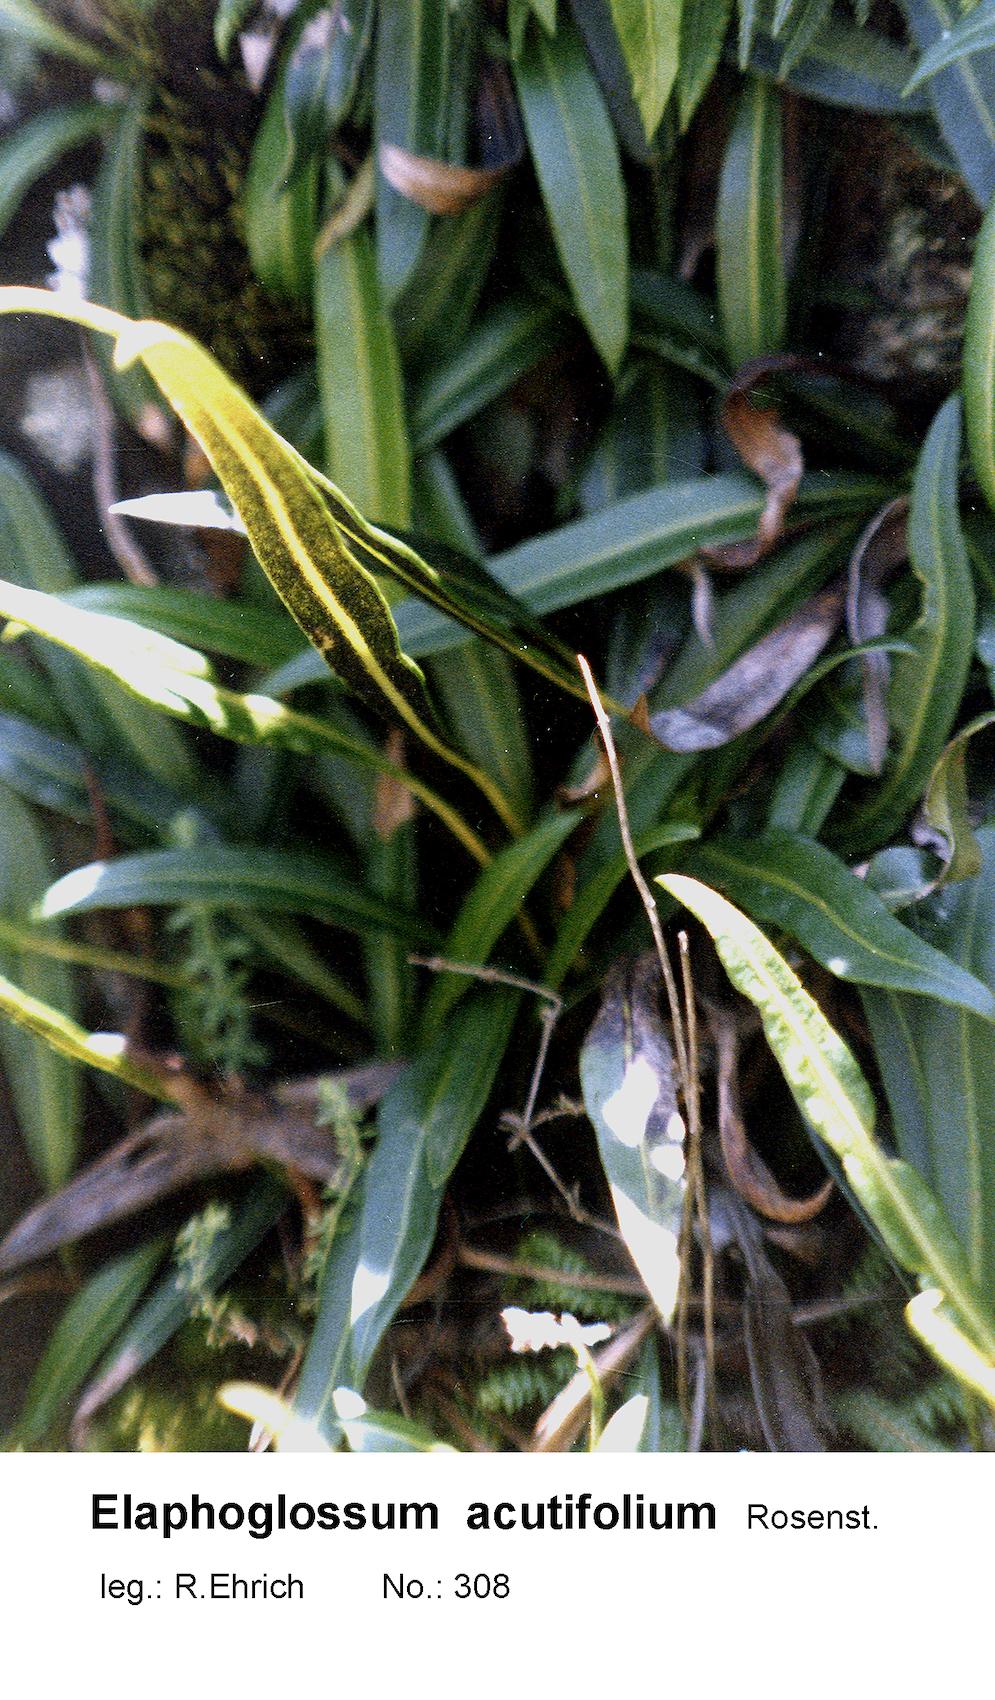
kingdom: Plantae
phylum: Tracheophyta
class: Polypodiopsida
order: Polypodiales
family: Dryopteridaceae
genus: Elaphoglossum
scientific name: Elaphoglossum acutifolium
